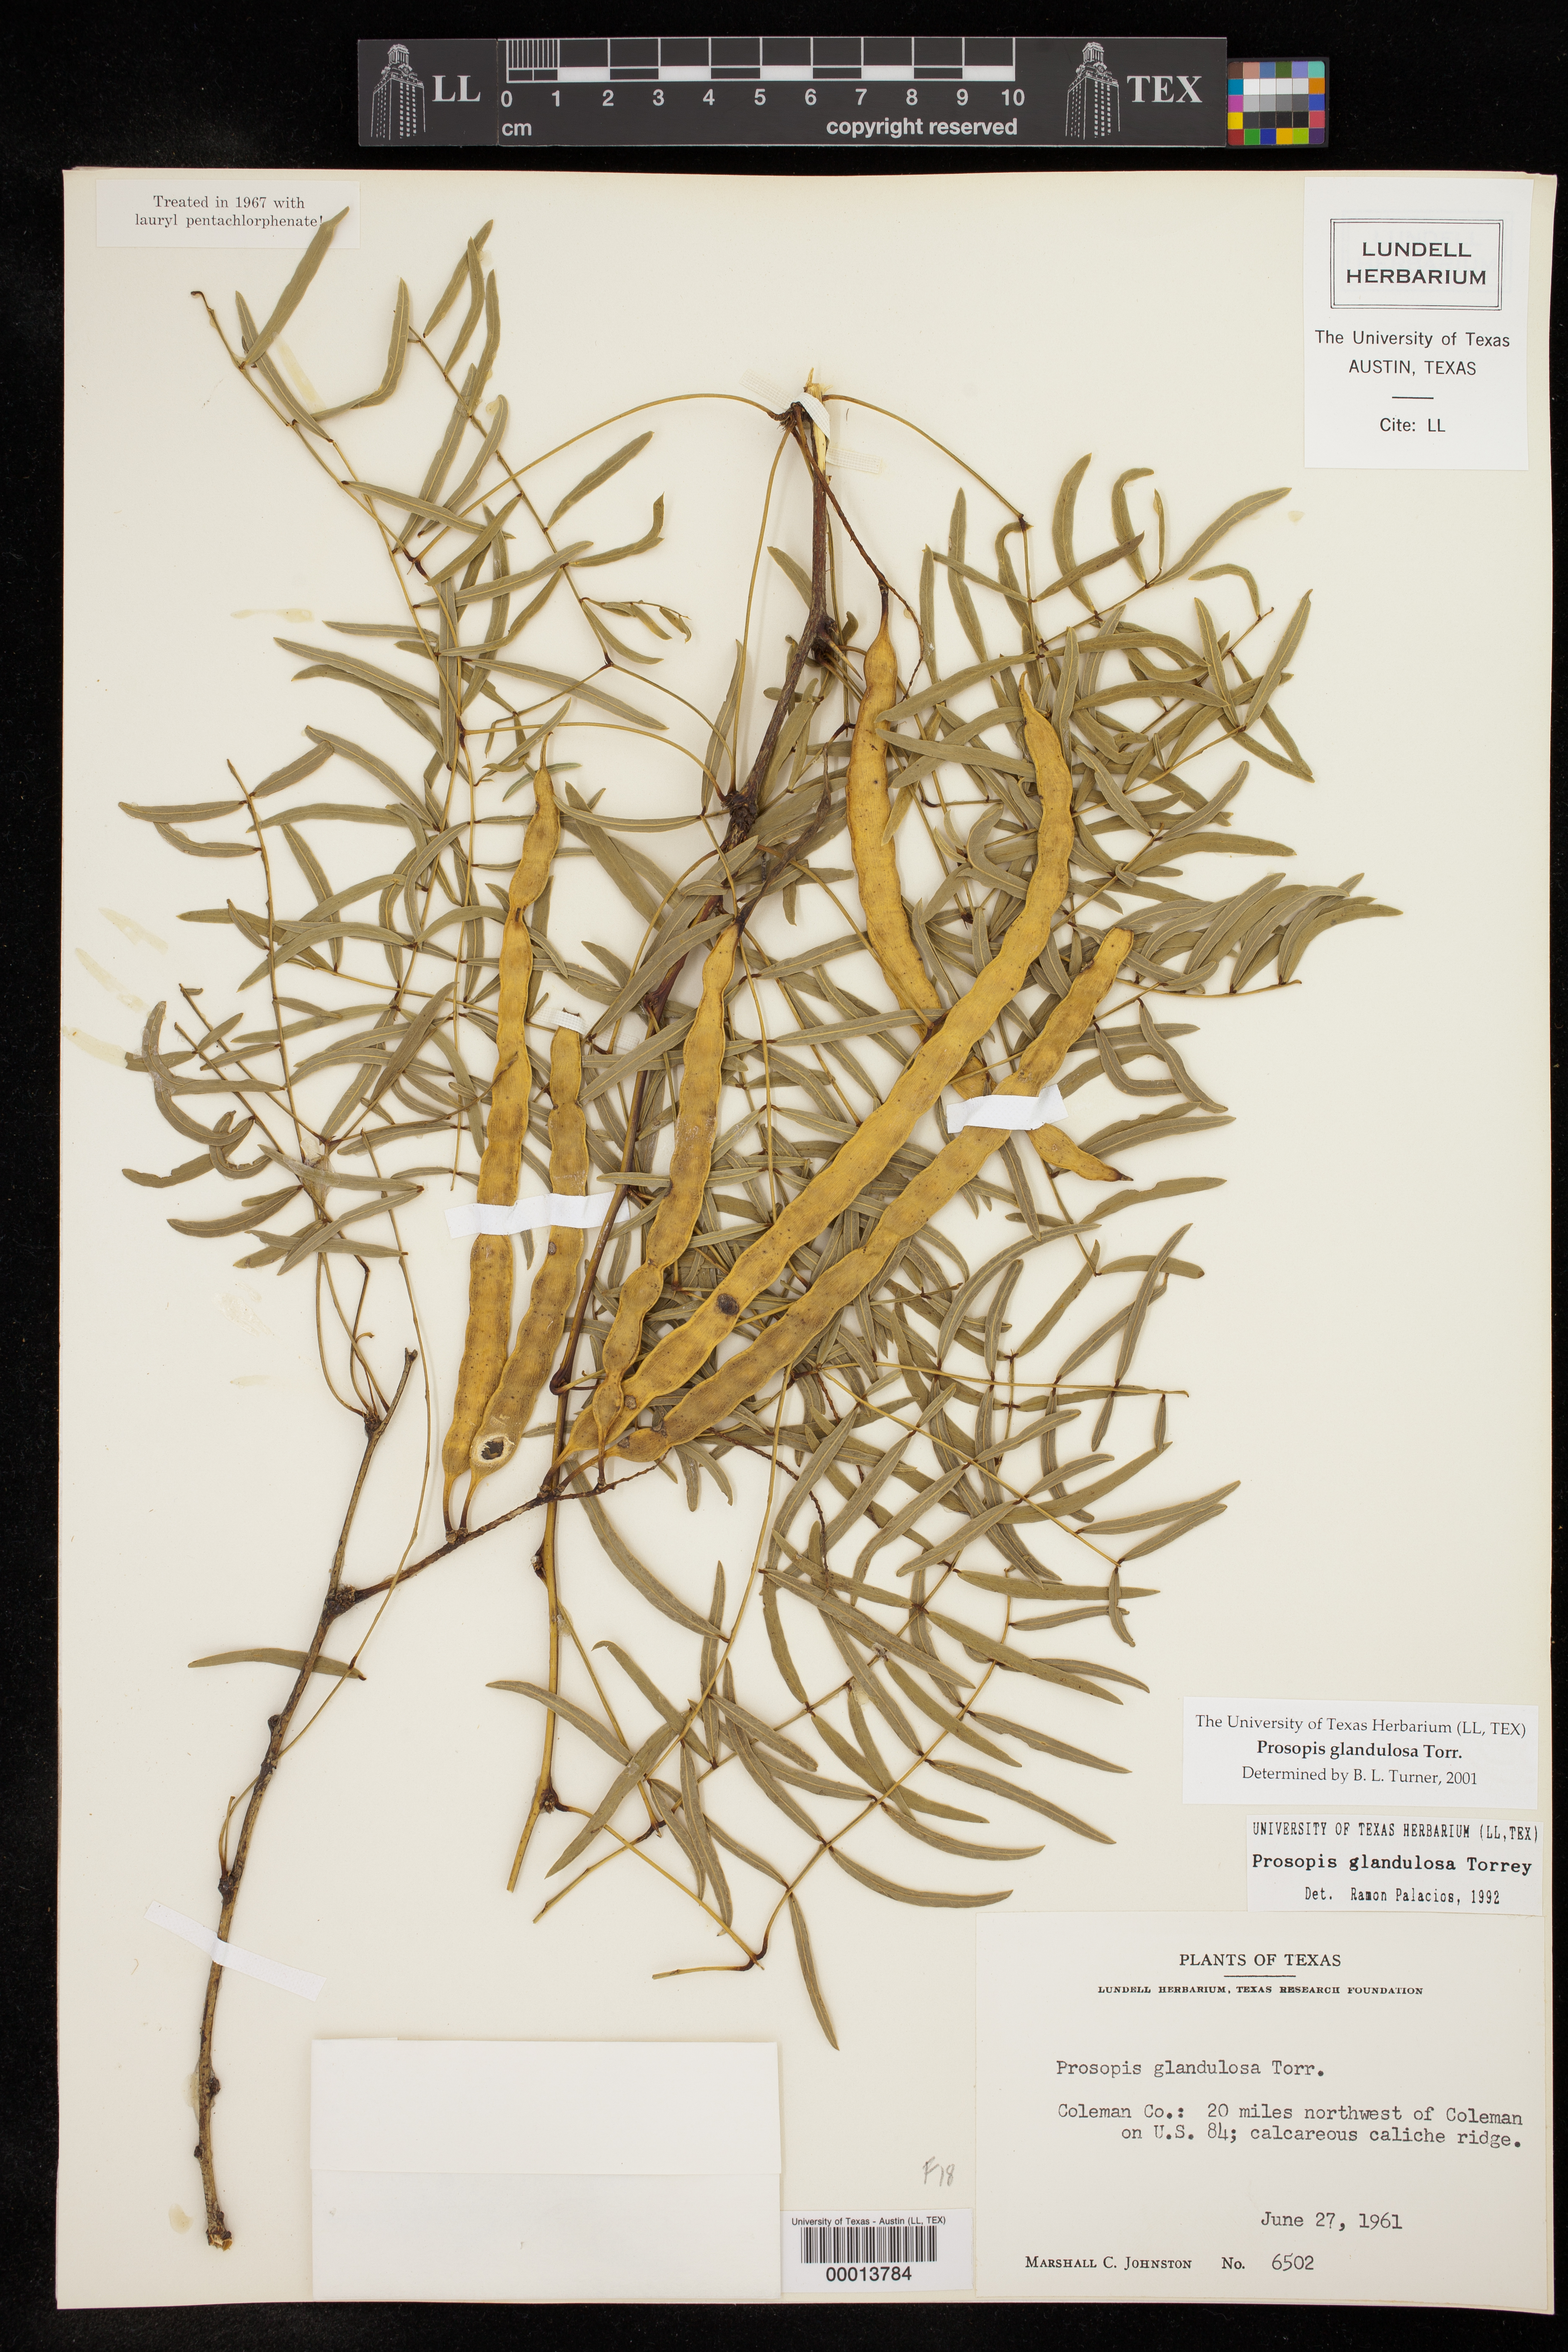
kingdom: Plantae
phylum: Tracheophyta
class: Magnoliopsida
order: Fabales
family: Fabaceae
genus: Prosopis
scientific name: Prosopis glandulosa
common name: Honey mesquite
